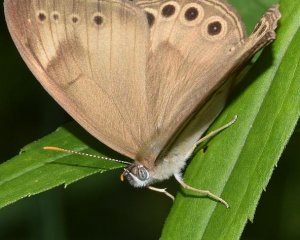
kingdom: Animalia
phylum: Arthropoda
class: Insecta
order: Lepidoptera
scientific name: Lepidoptera
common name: Butterflies
